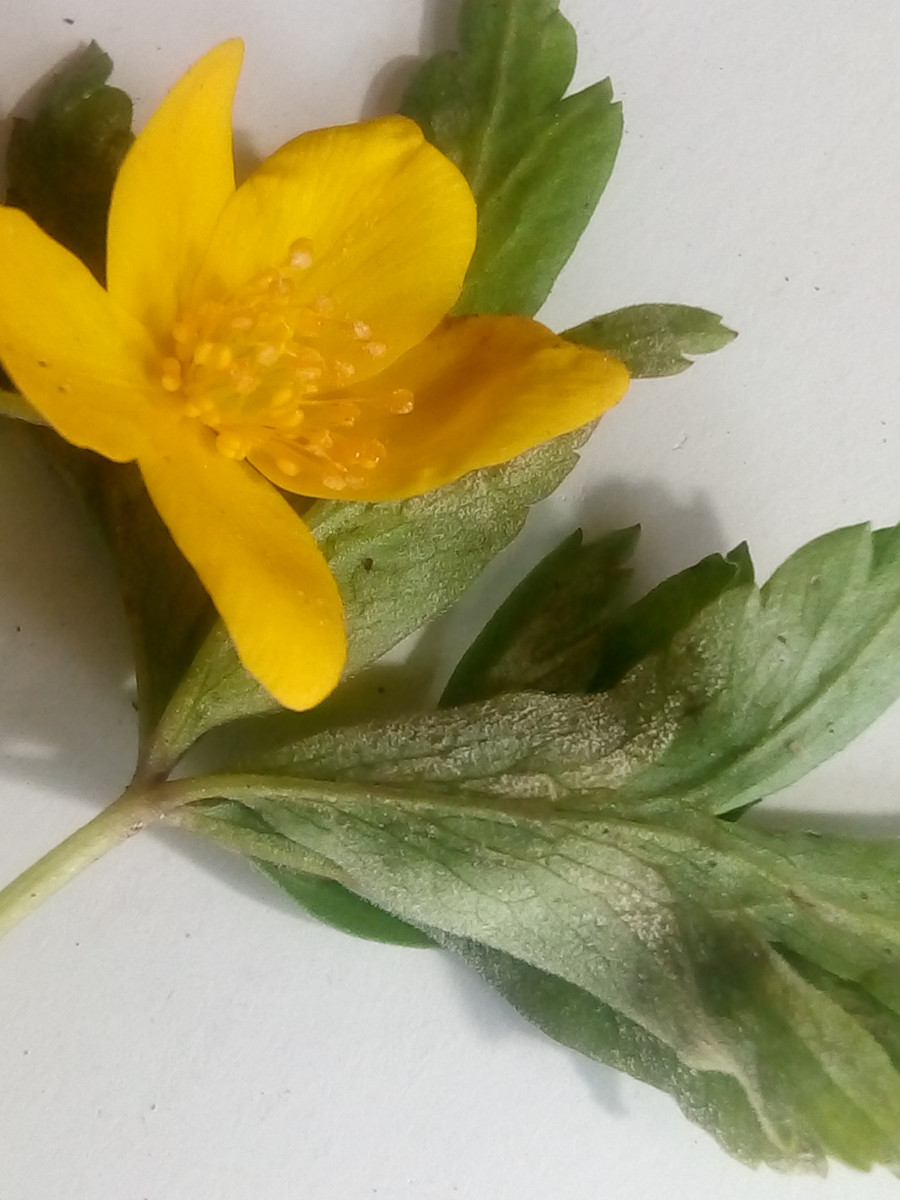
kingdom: Chromista
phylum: Oomycota
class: Peronosporea
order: Peronosporales
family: Peronosporaceae
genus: Plasmoverna
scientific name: Plasmoverna anemones-ranunculoidis
